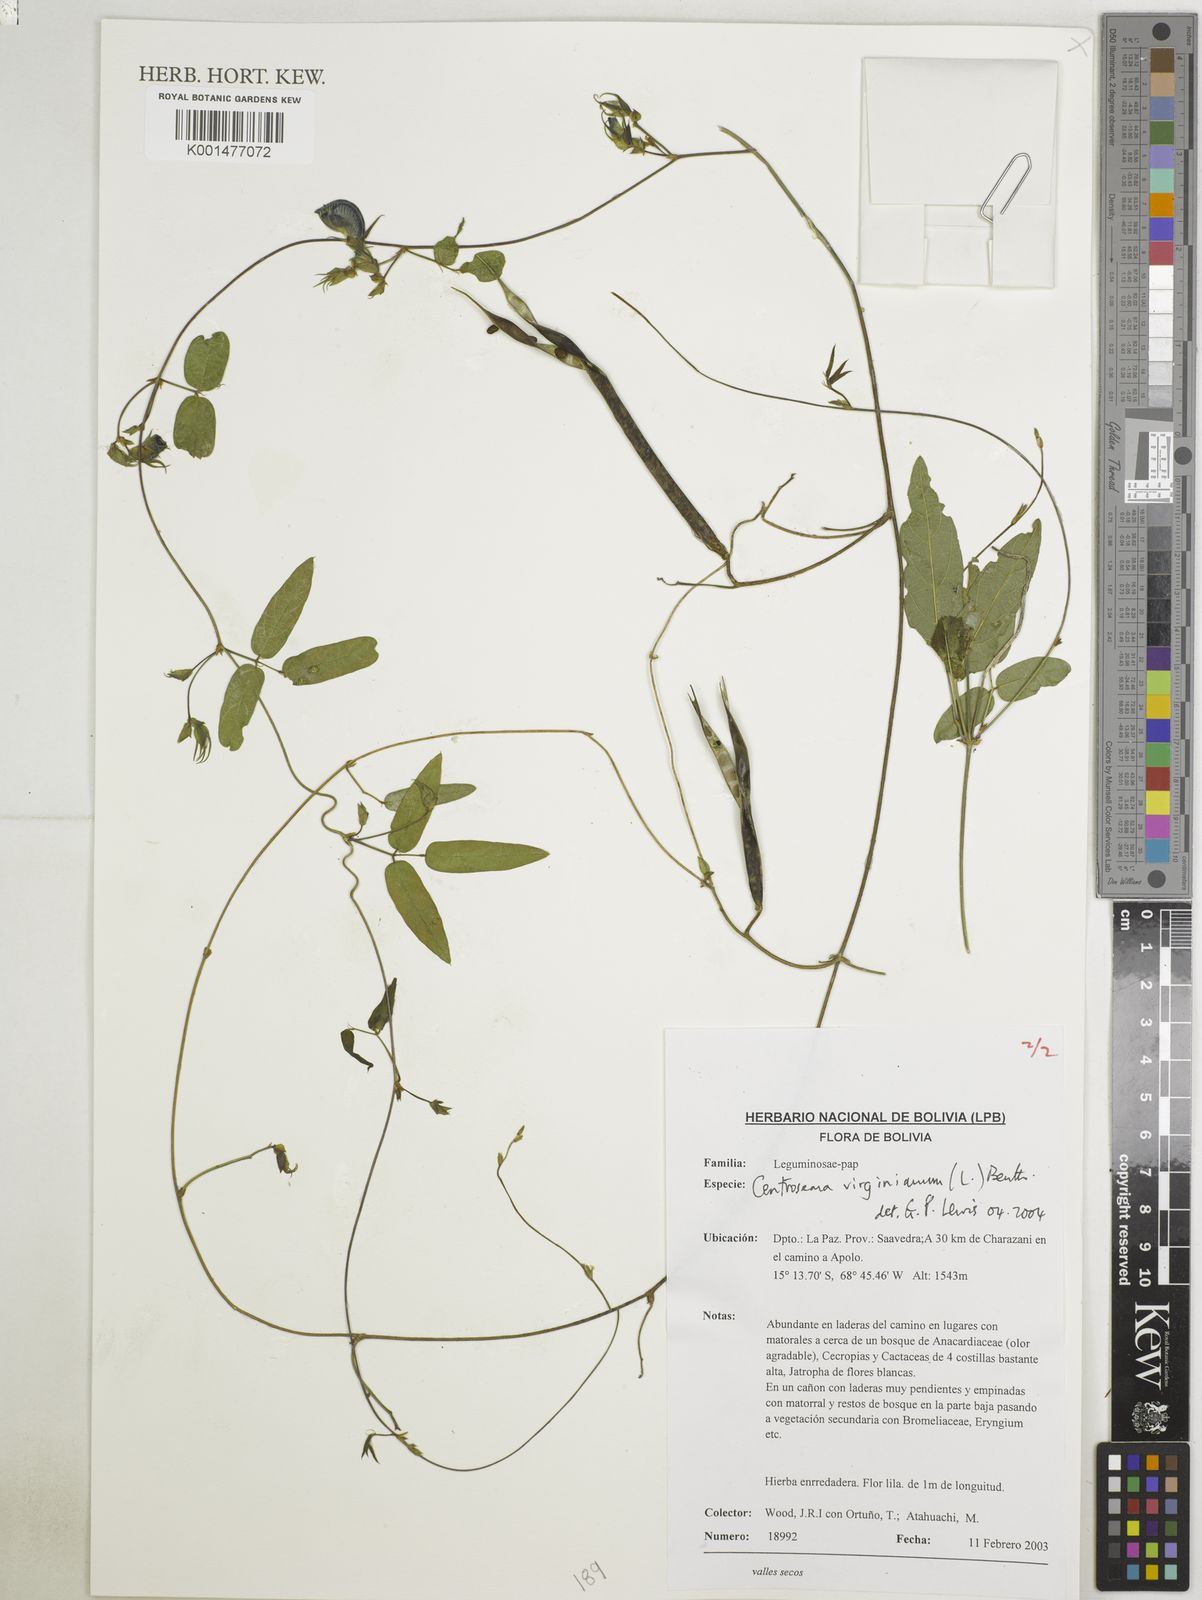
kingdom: Plantae
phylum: Tracheophyta
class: Magnoliopsida
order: Fabales
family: Fabaceae
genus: Centrosema
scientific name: Centrosema virginianum
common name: Butterfly-pea
